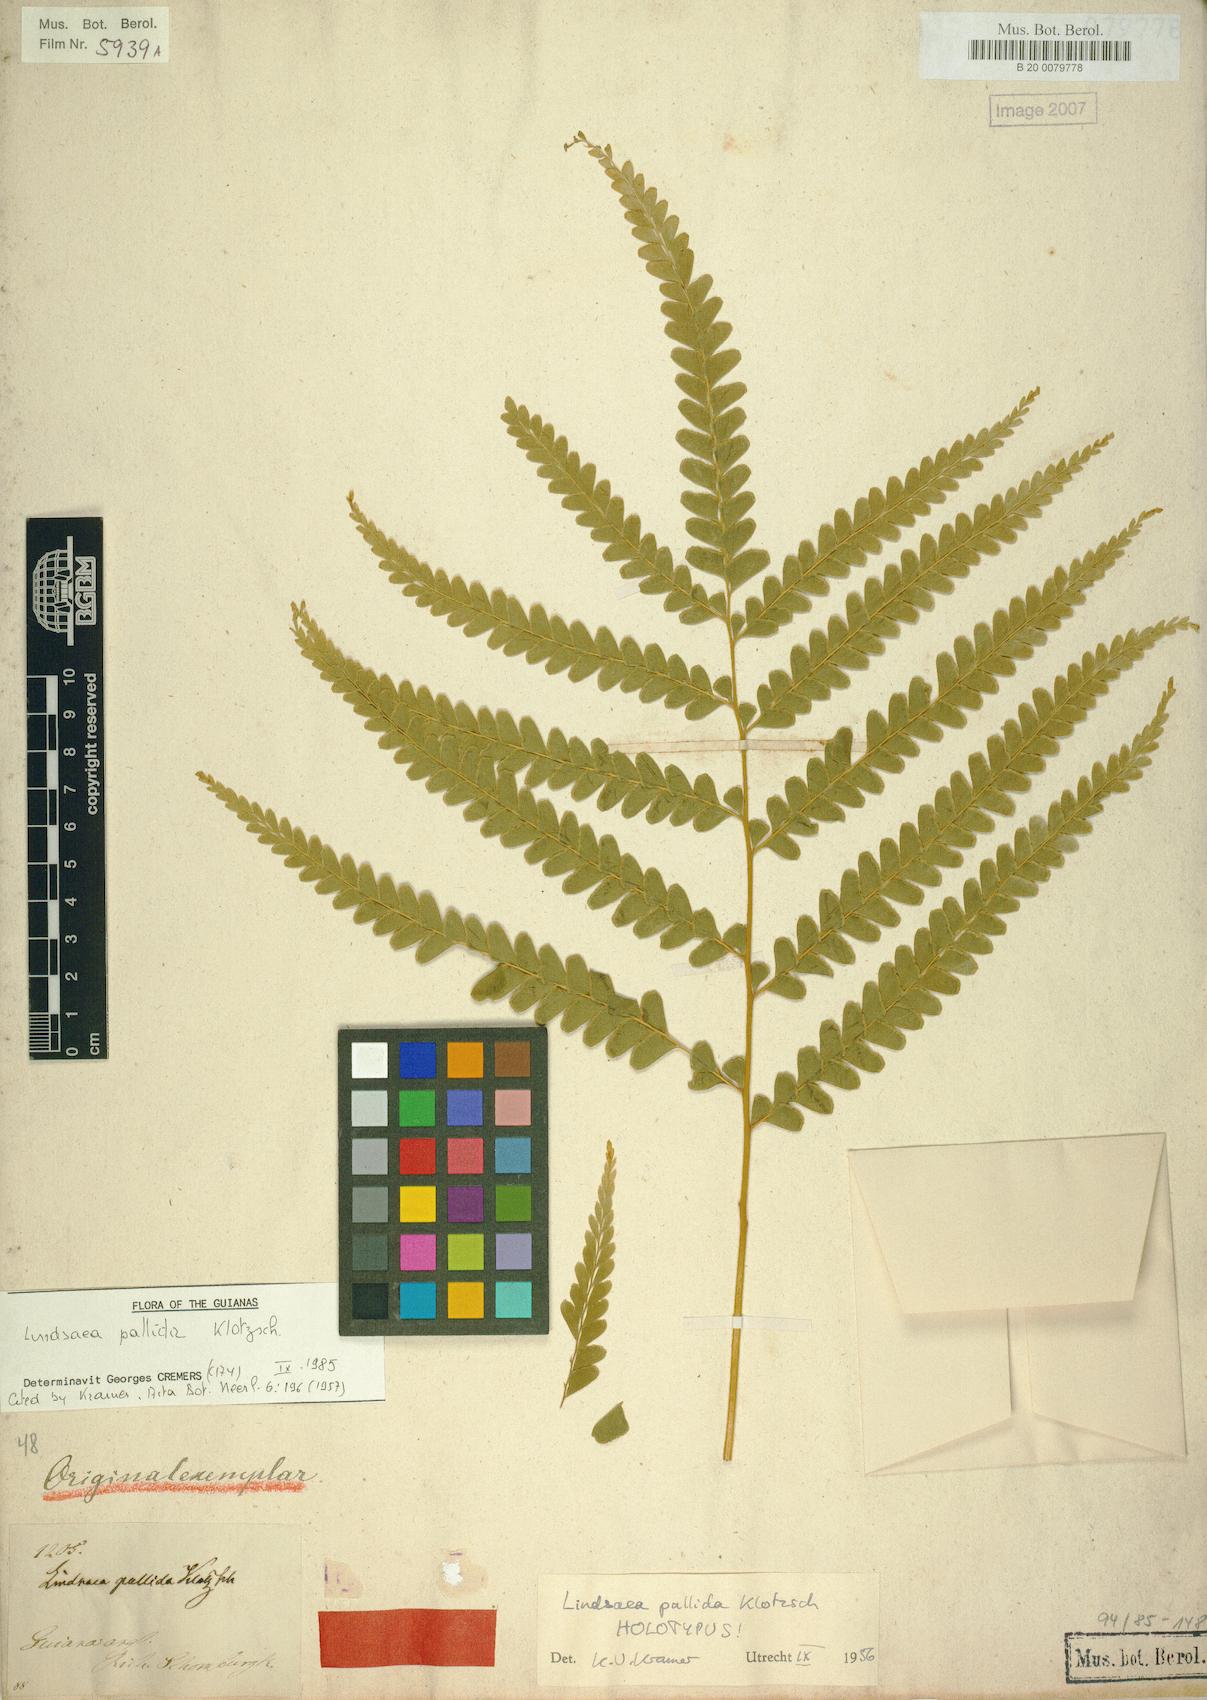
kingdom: Plantae
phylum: Tracheophyta
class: Polypodiopsida
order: Polypodiales
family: Lindsaeaceae
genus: Lindsaea
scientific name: Lindsaea pallida
